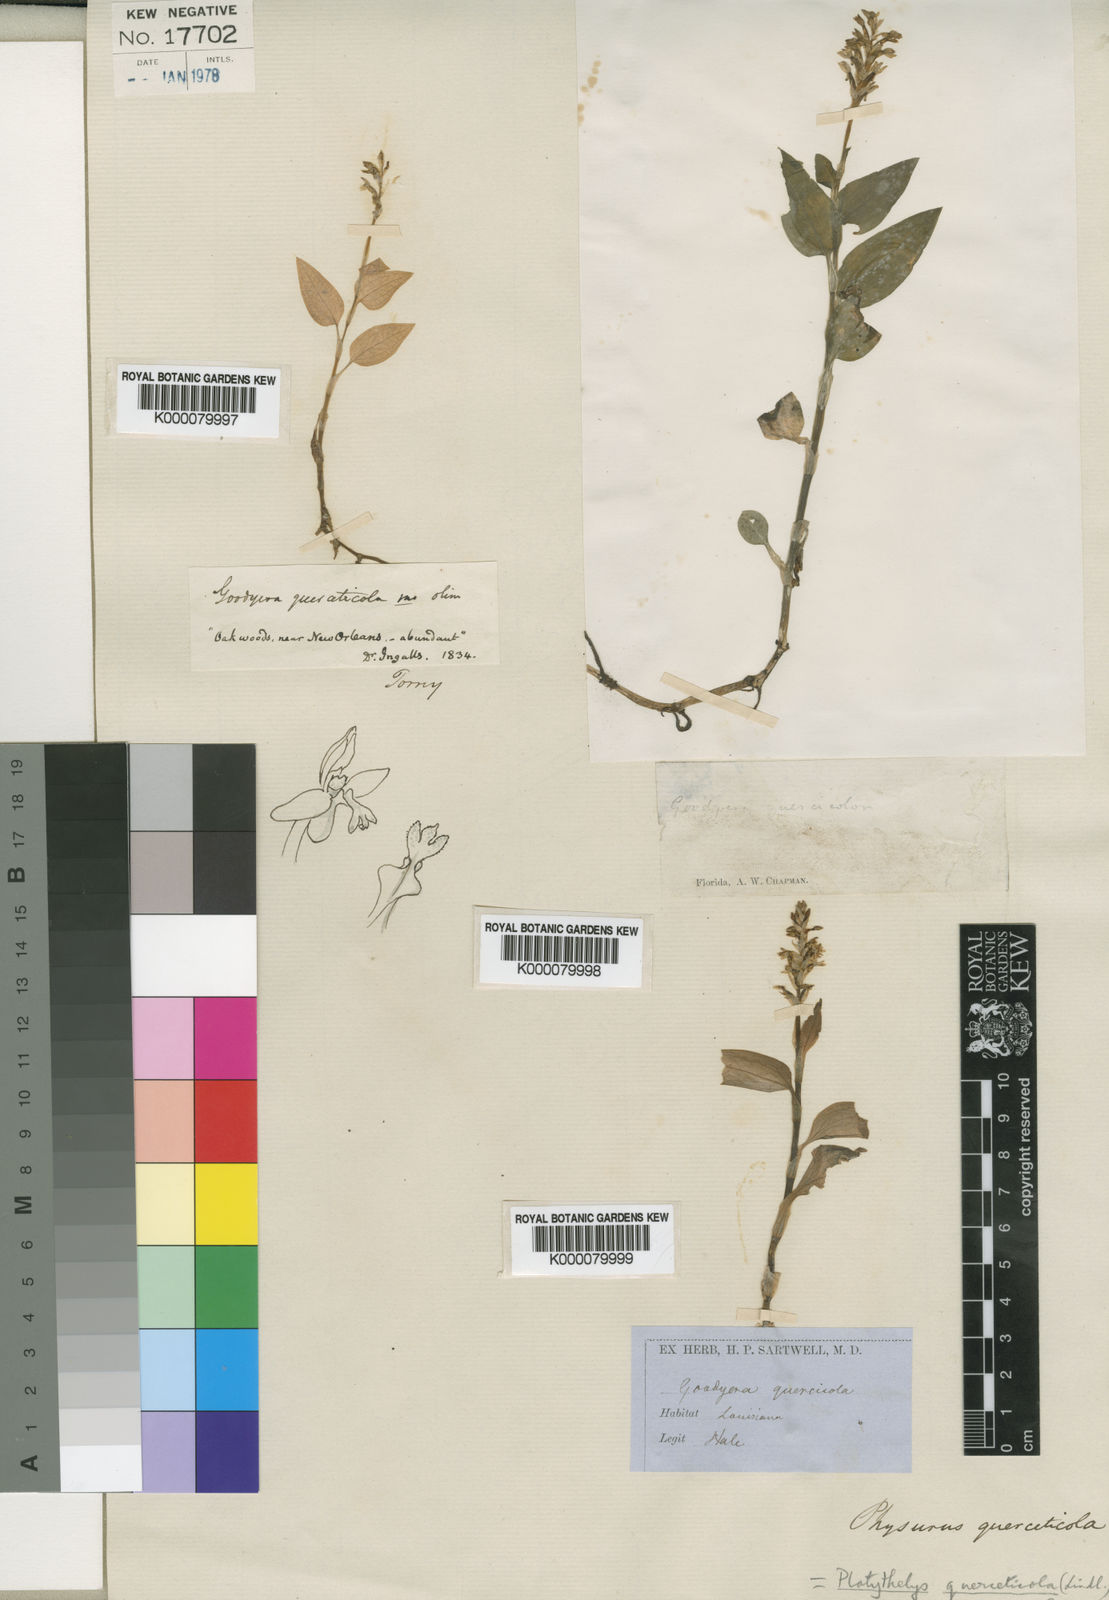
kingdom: Plantae
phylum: Tracheophyta
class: Liliopsida
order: Asparagales
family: Orchidaceae
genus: Aspidogyne
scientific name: Aspidogyne querceticola
